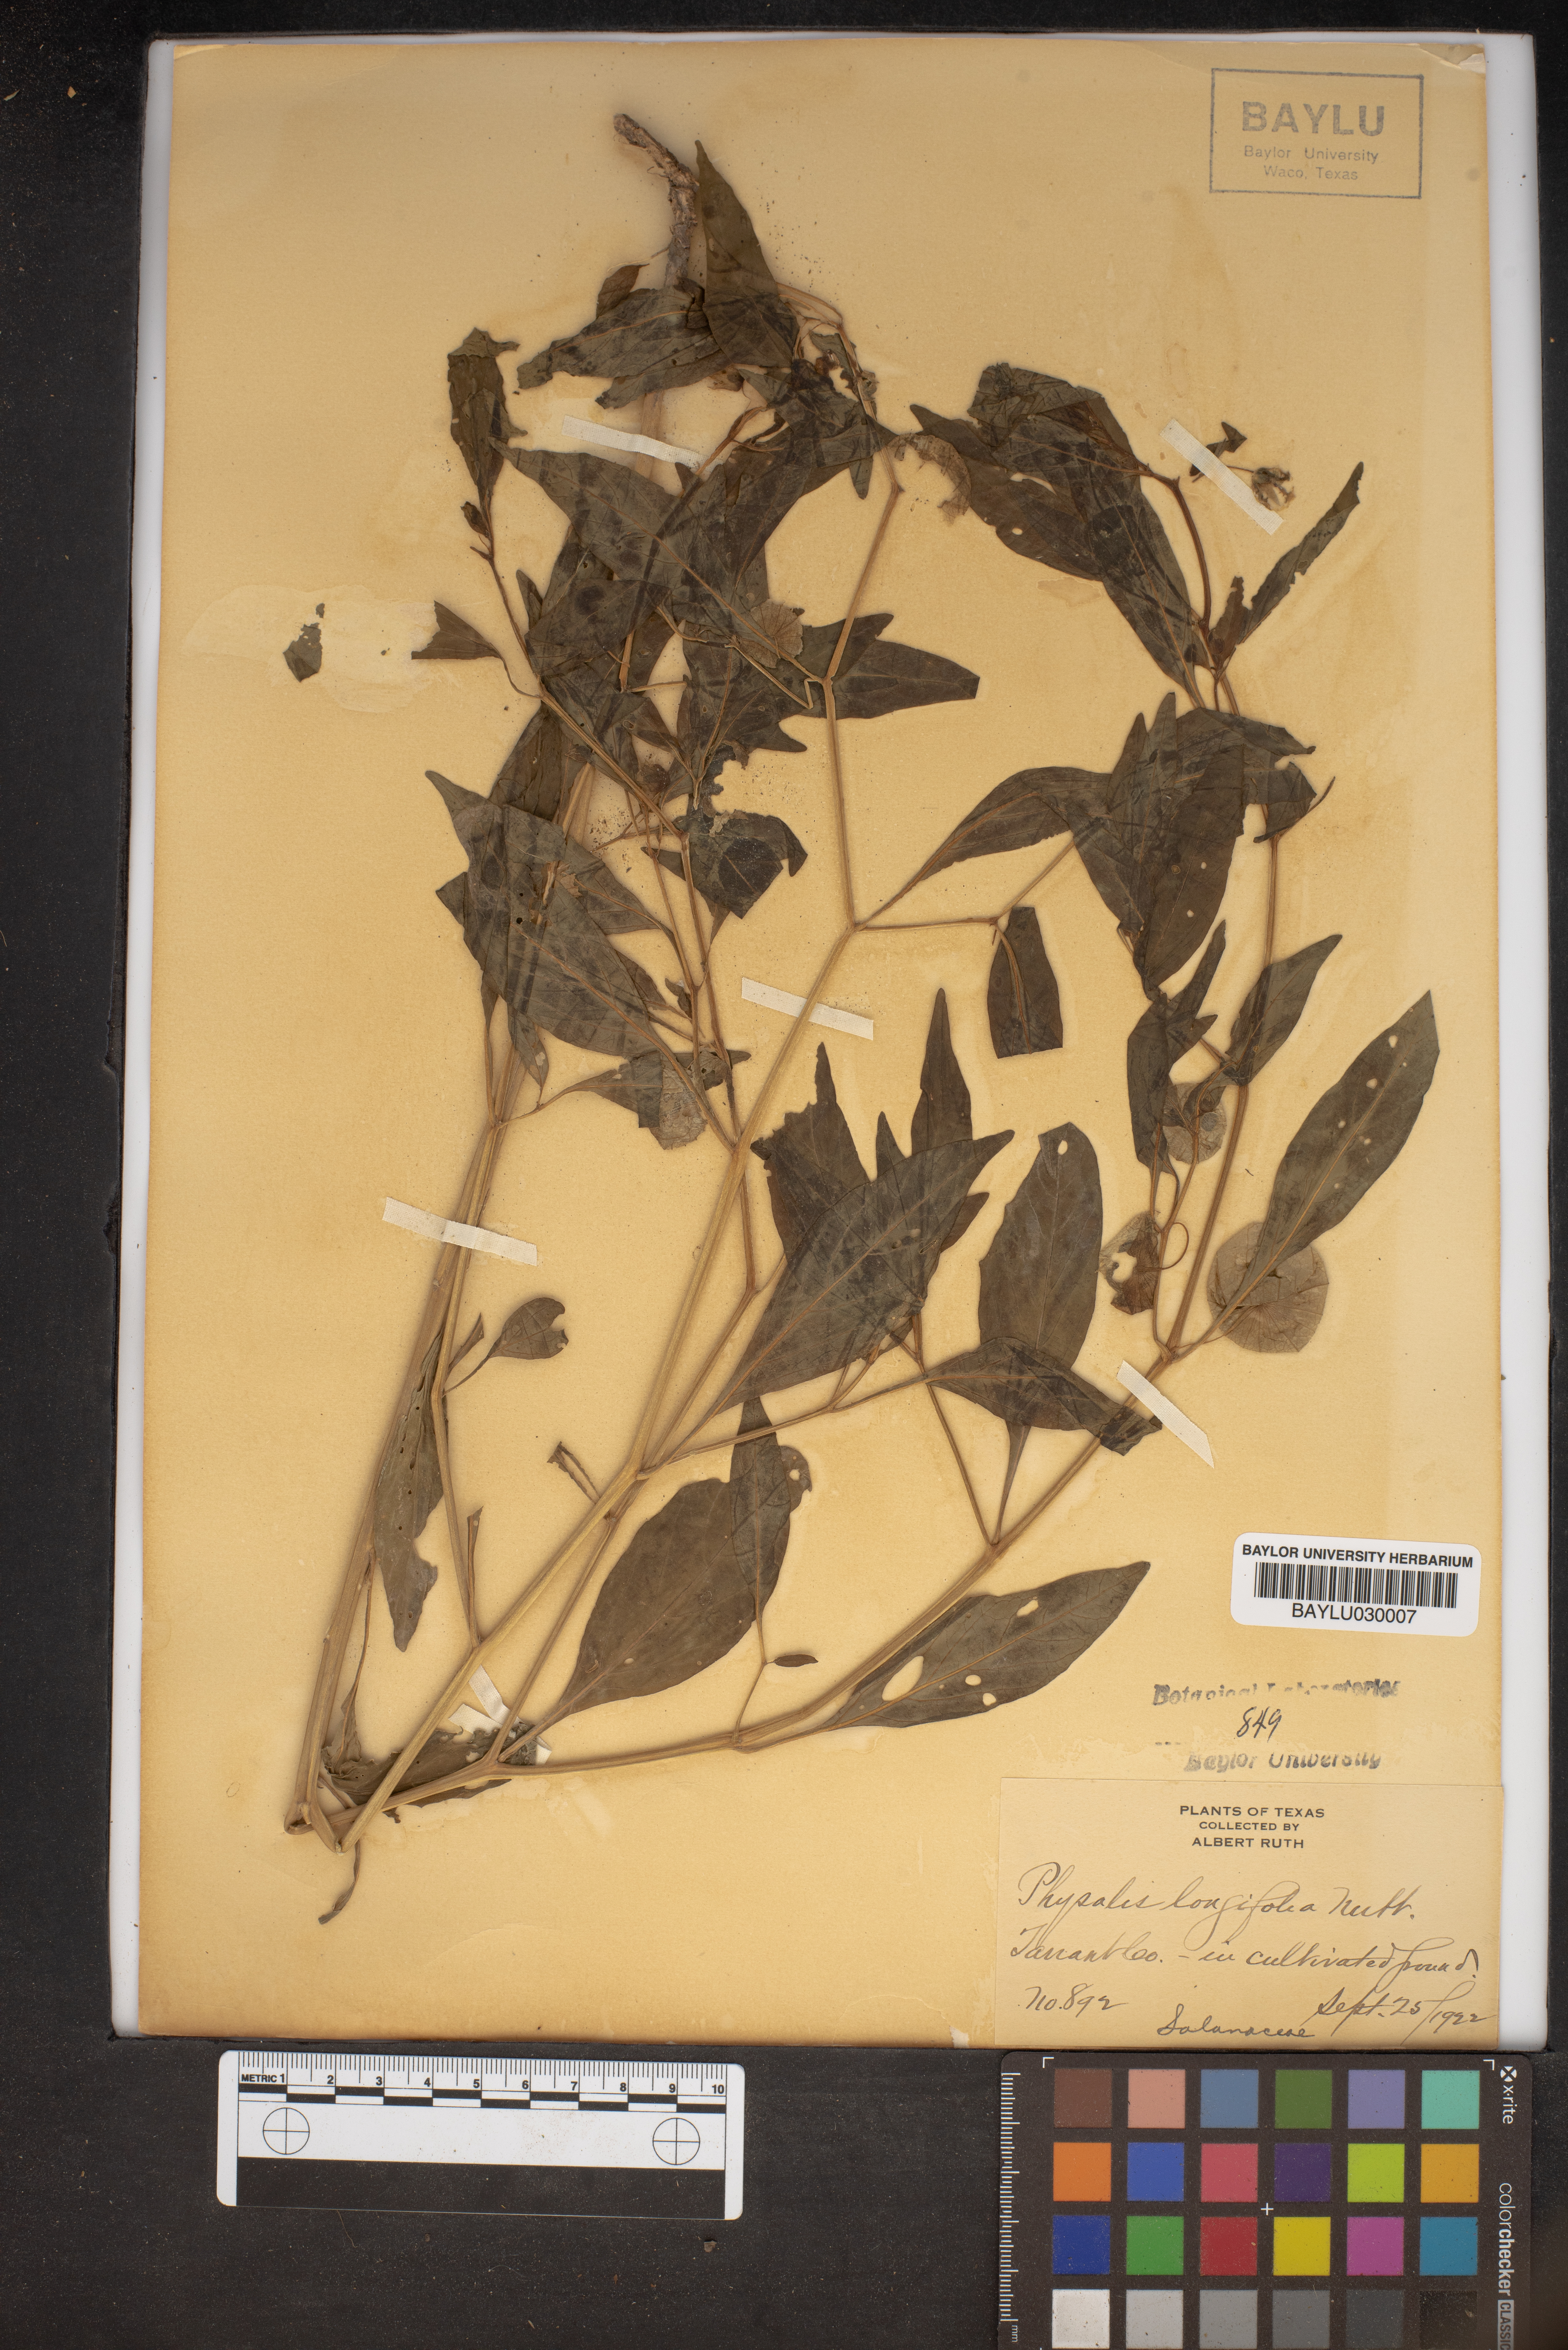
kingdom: Plantae
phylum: Tracheophyta
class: Magnoliopsida
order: Solanales
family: Solanaceae
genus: Physalis
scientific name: Physalis longifolia
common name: Common ground-cherry
